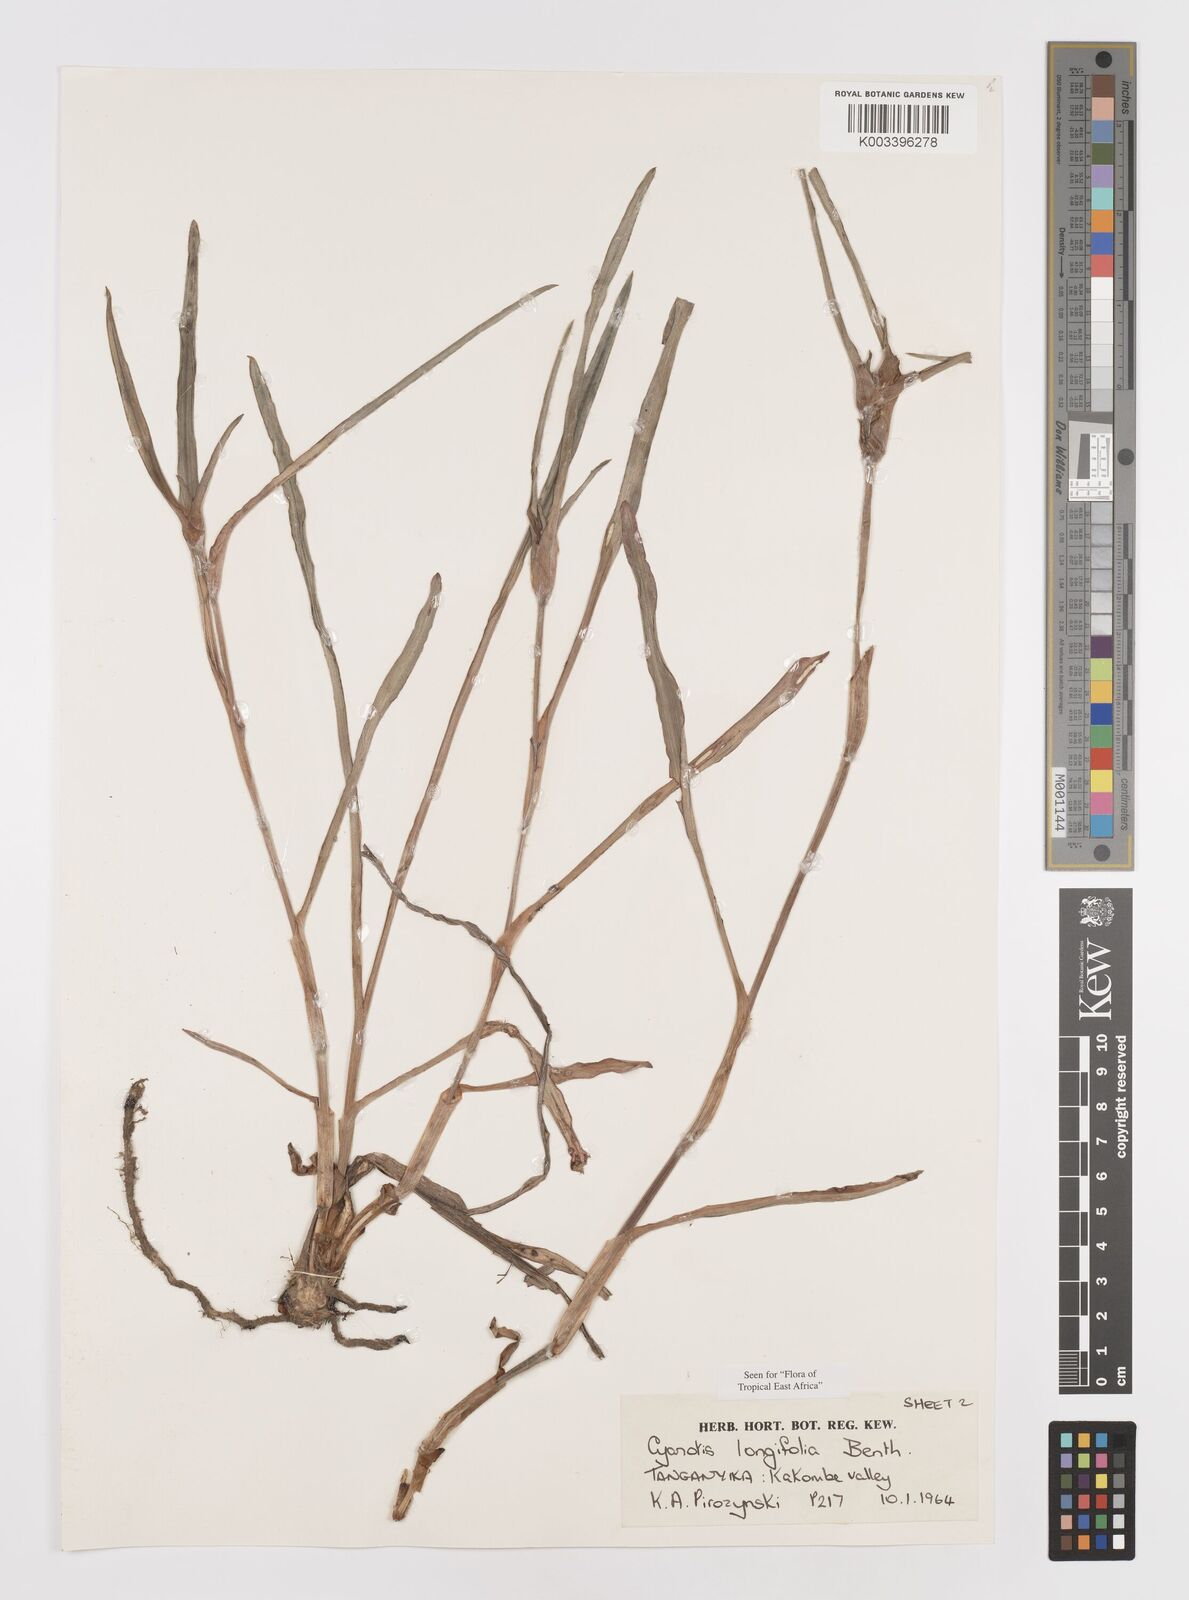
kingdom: Plantae
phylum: Tracheophyta
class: Liliopsida
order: Commelinales
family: Commelinaceae
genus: Cyanotis
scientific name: Cyanotis longifolia
